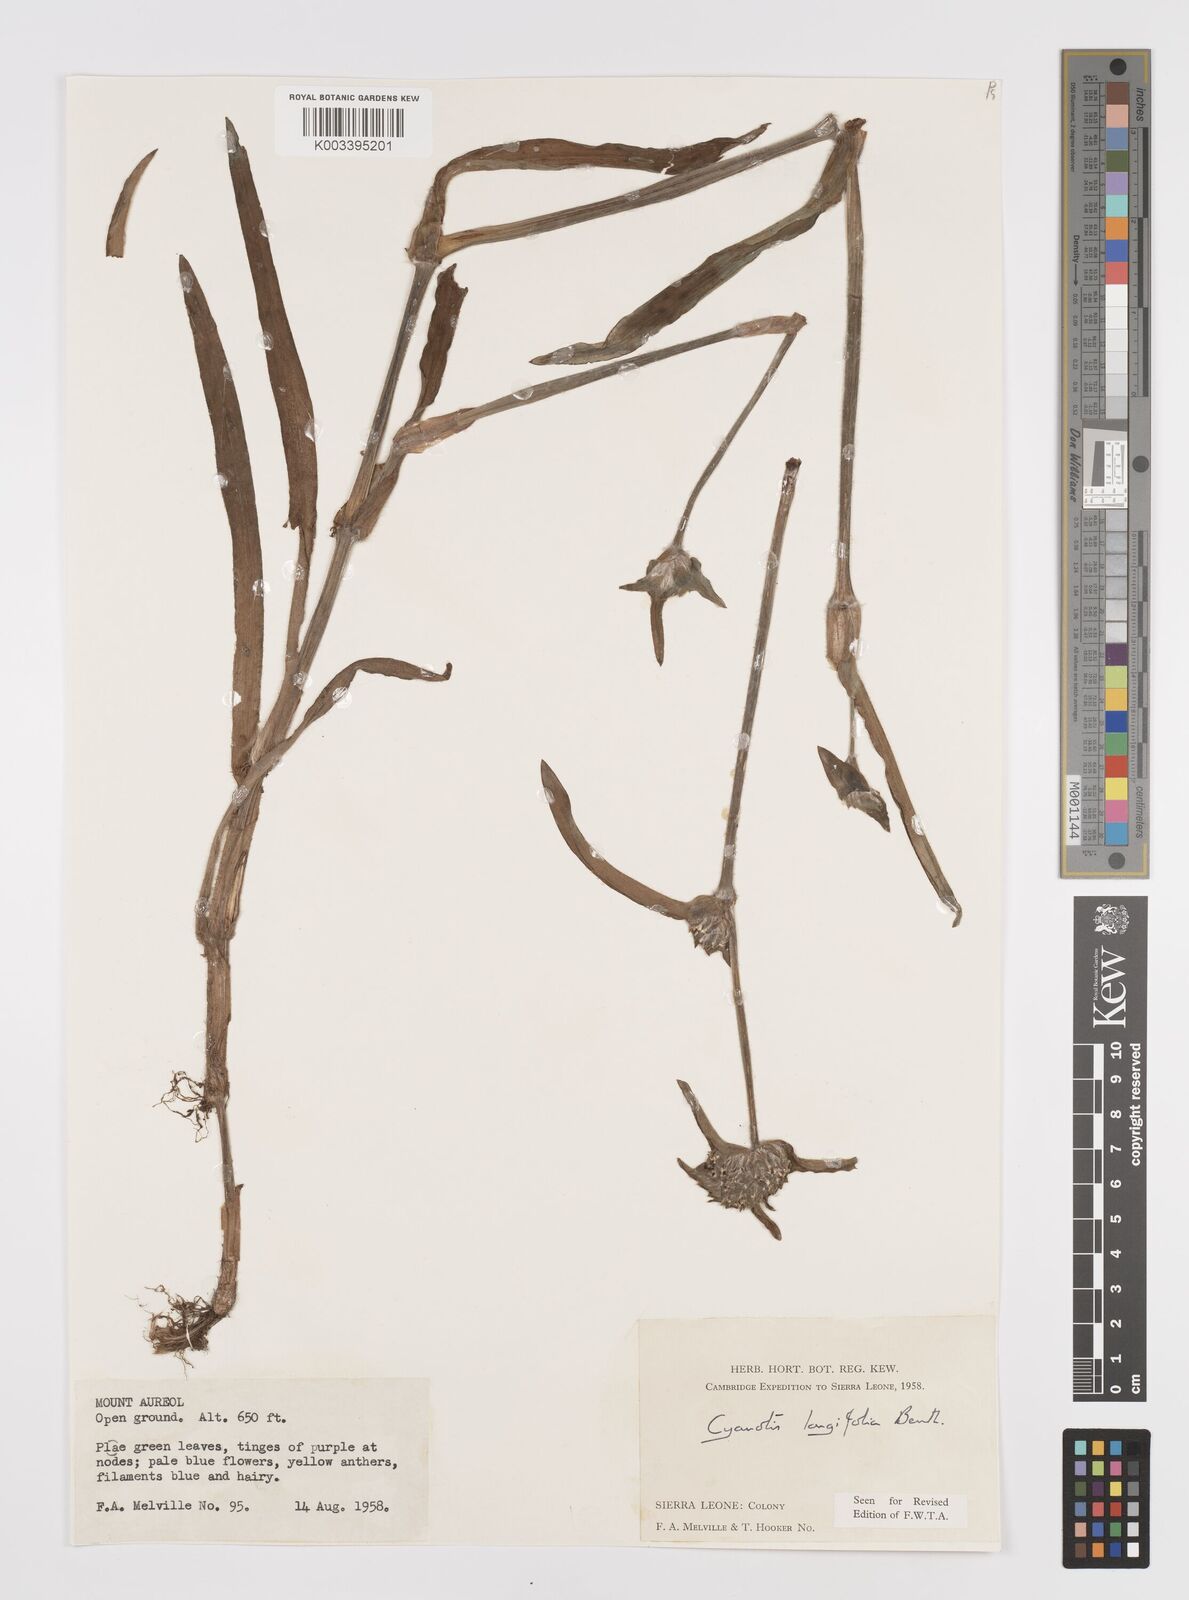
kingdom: Plantae
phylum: Tracheophyta
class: Liliopsida
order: Commelinales
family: Commelinaceae
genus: Cyanotis
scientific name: Cyanotis
